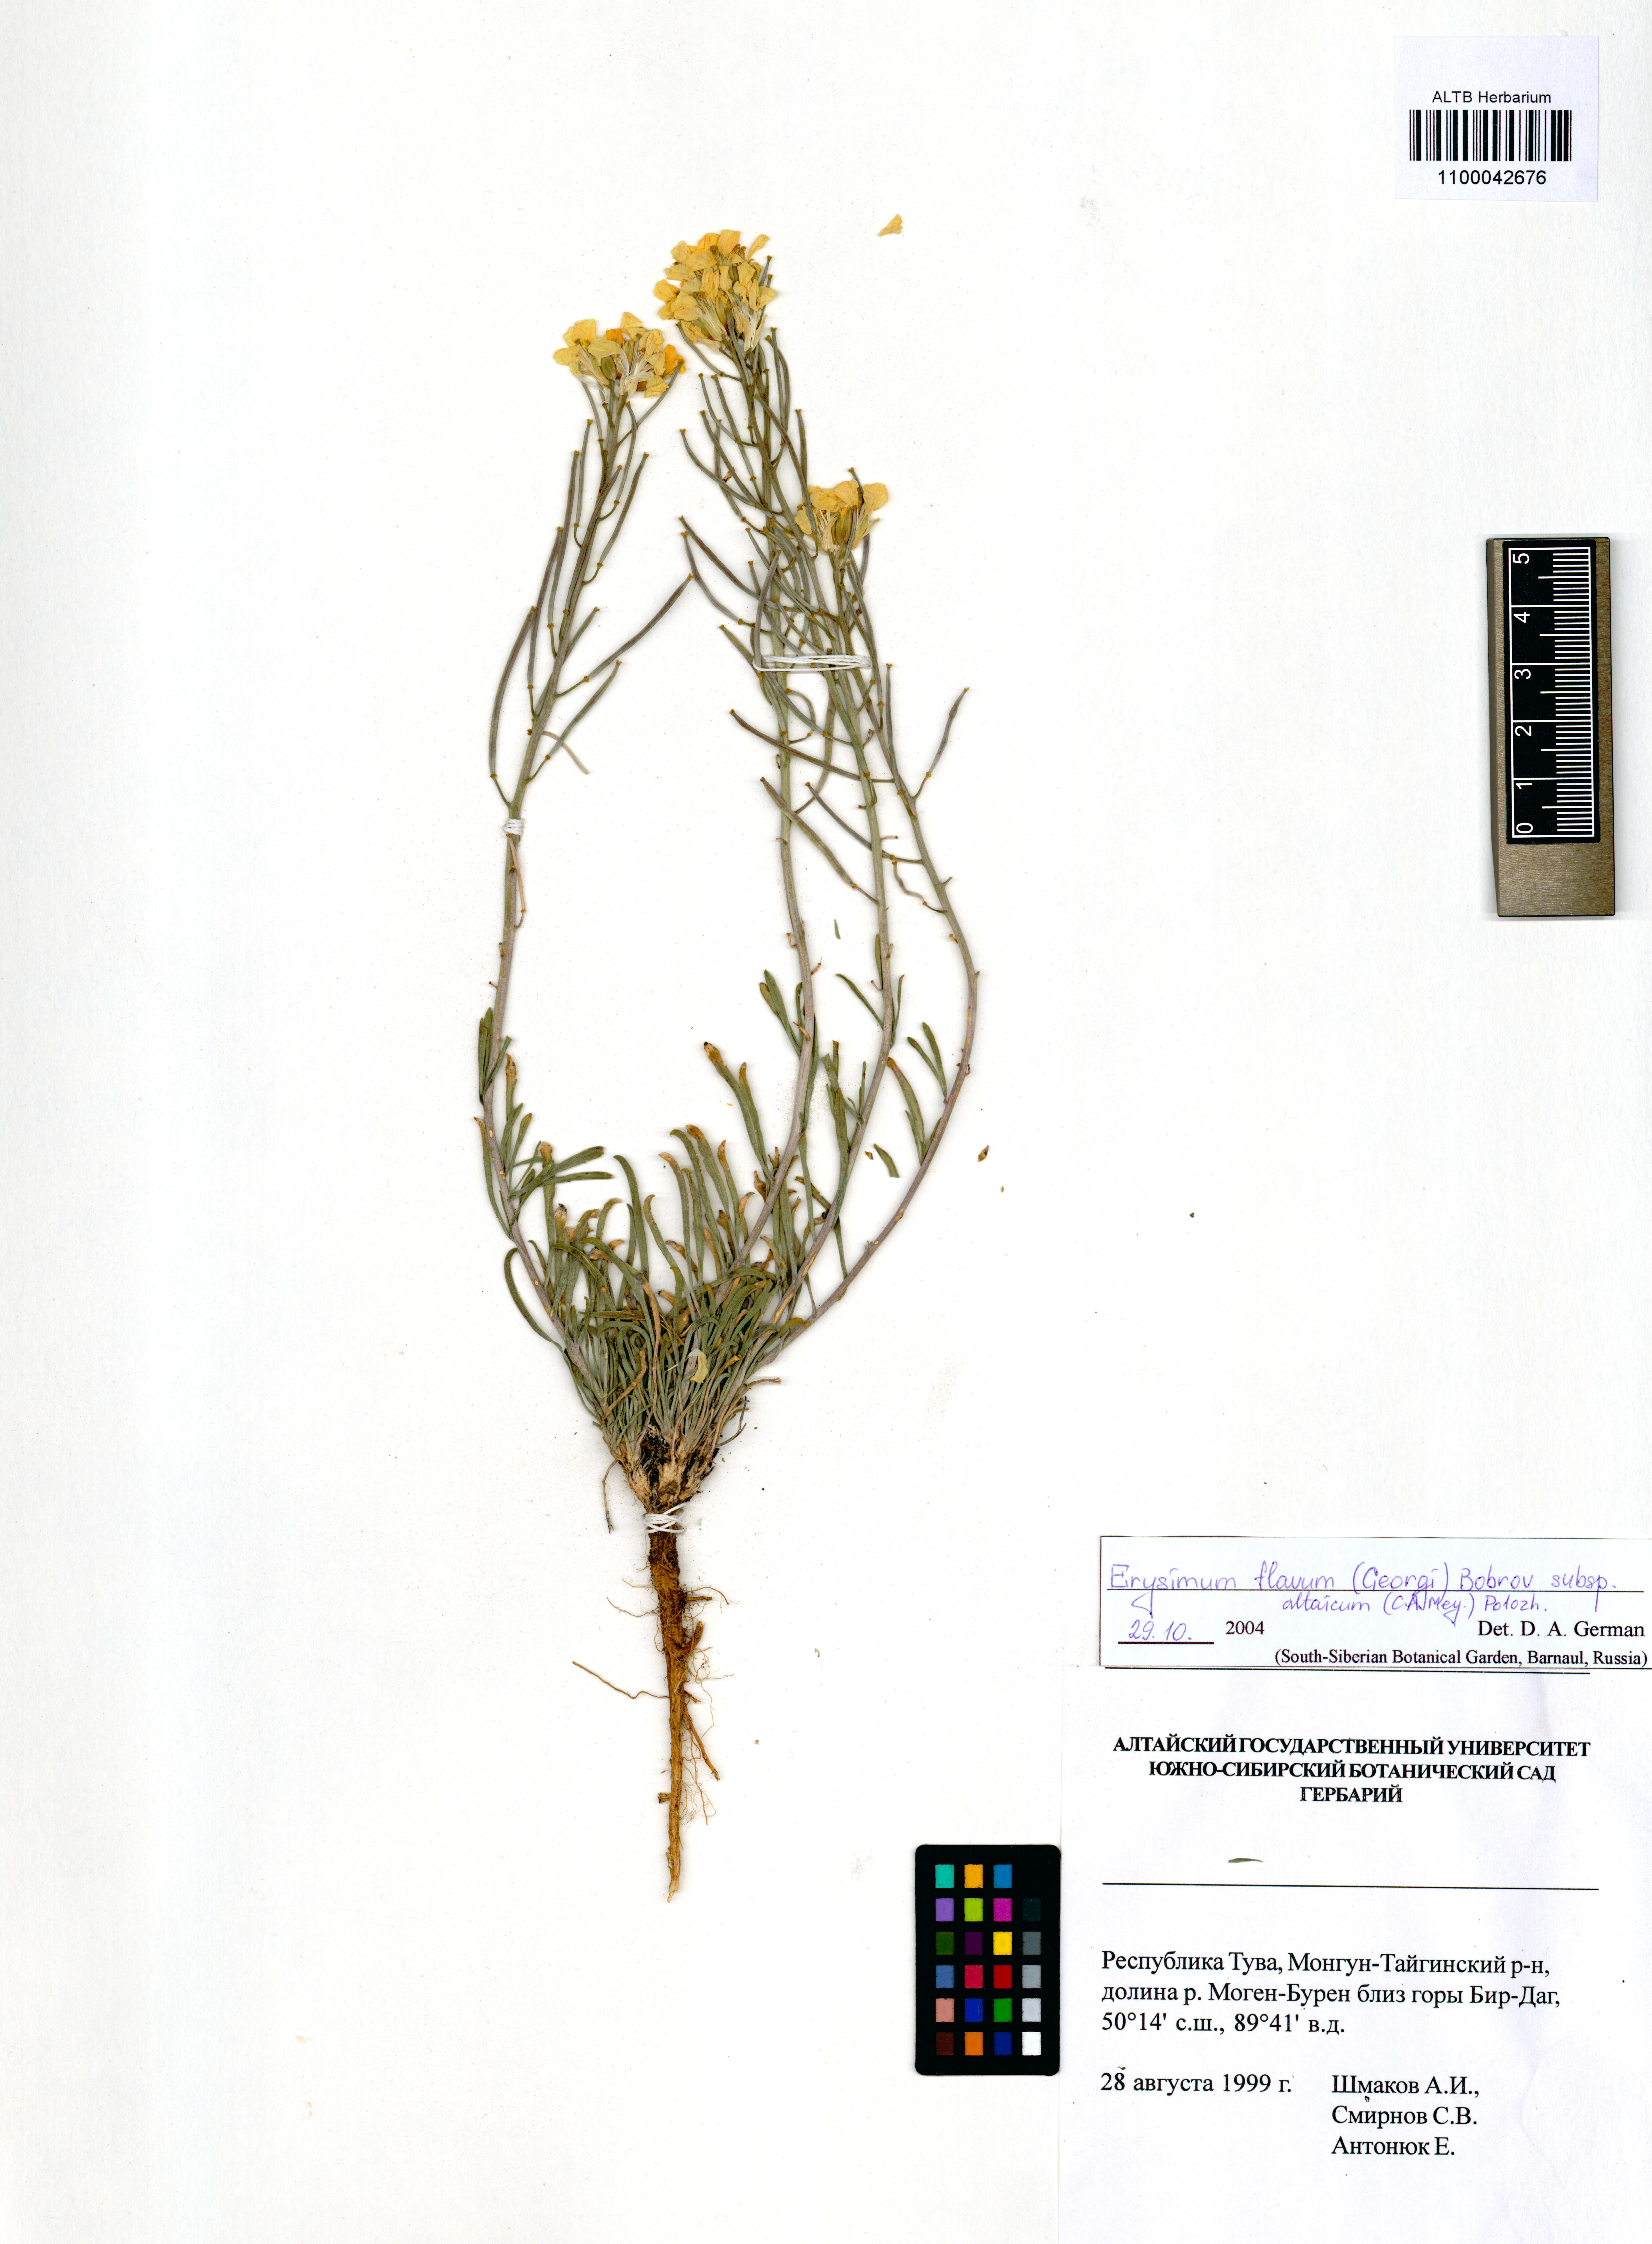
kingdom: Plantae
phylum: Tracheophyta
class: Magnoliopsida
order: Brassicales
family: Brassicaceae
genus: Erysimum
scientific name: Erysimum flavum
